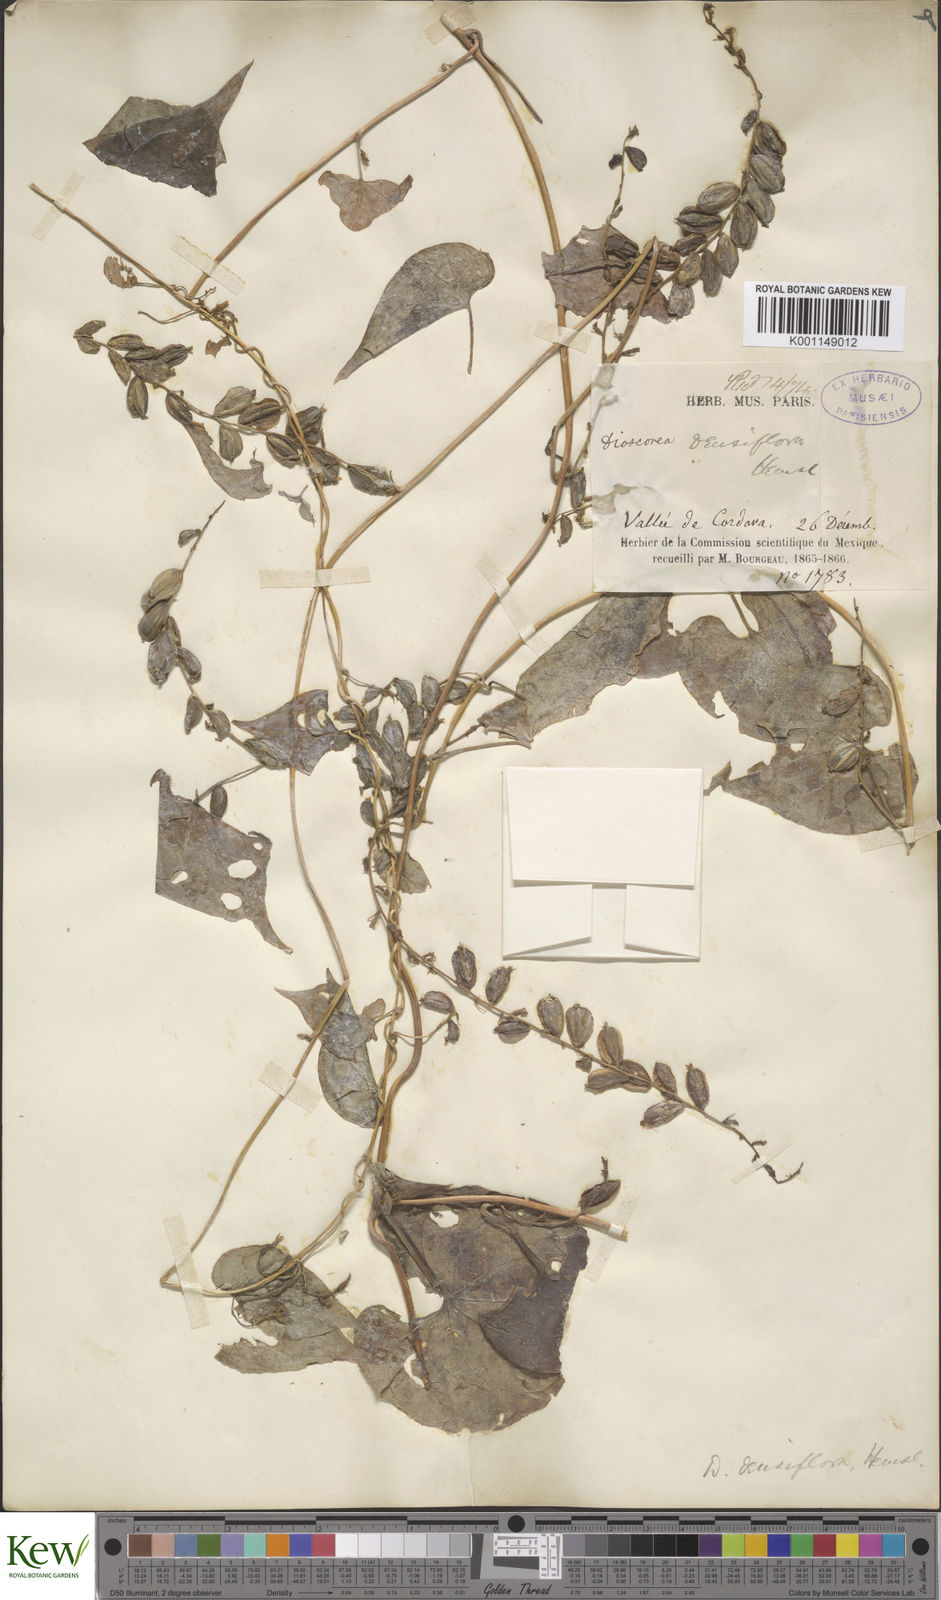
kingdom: Plantae
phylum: Tracheophyta
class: Liliopsida
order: Dioscoreales
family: Dioscoreaceae
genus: Dioscorea
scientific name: Dioscorea densiflora
